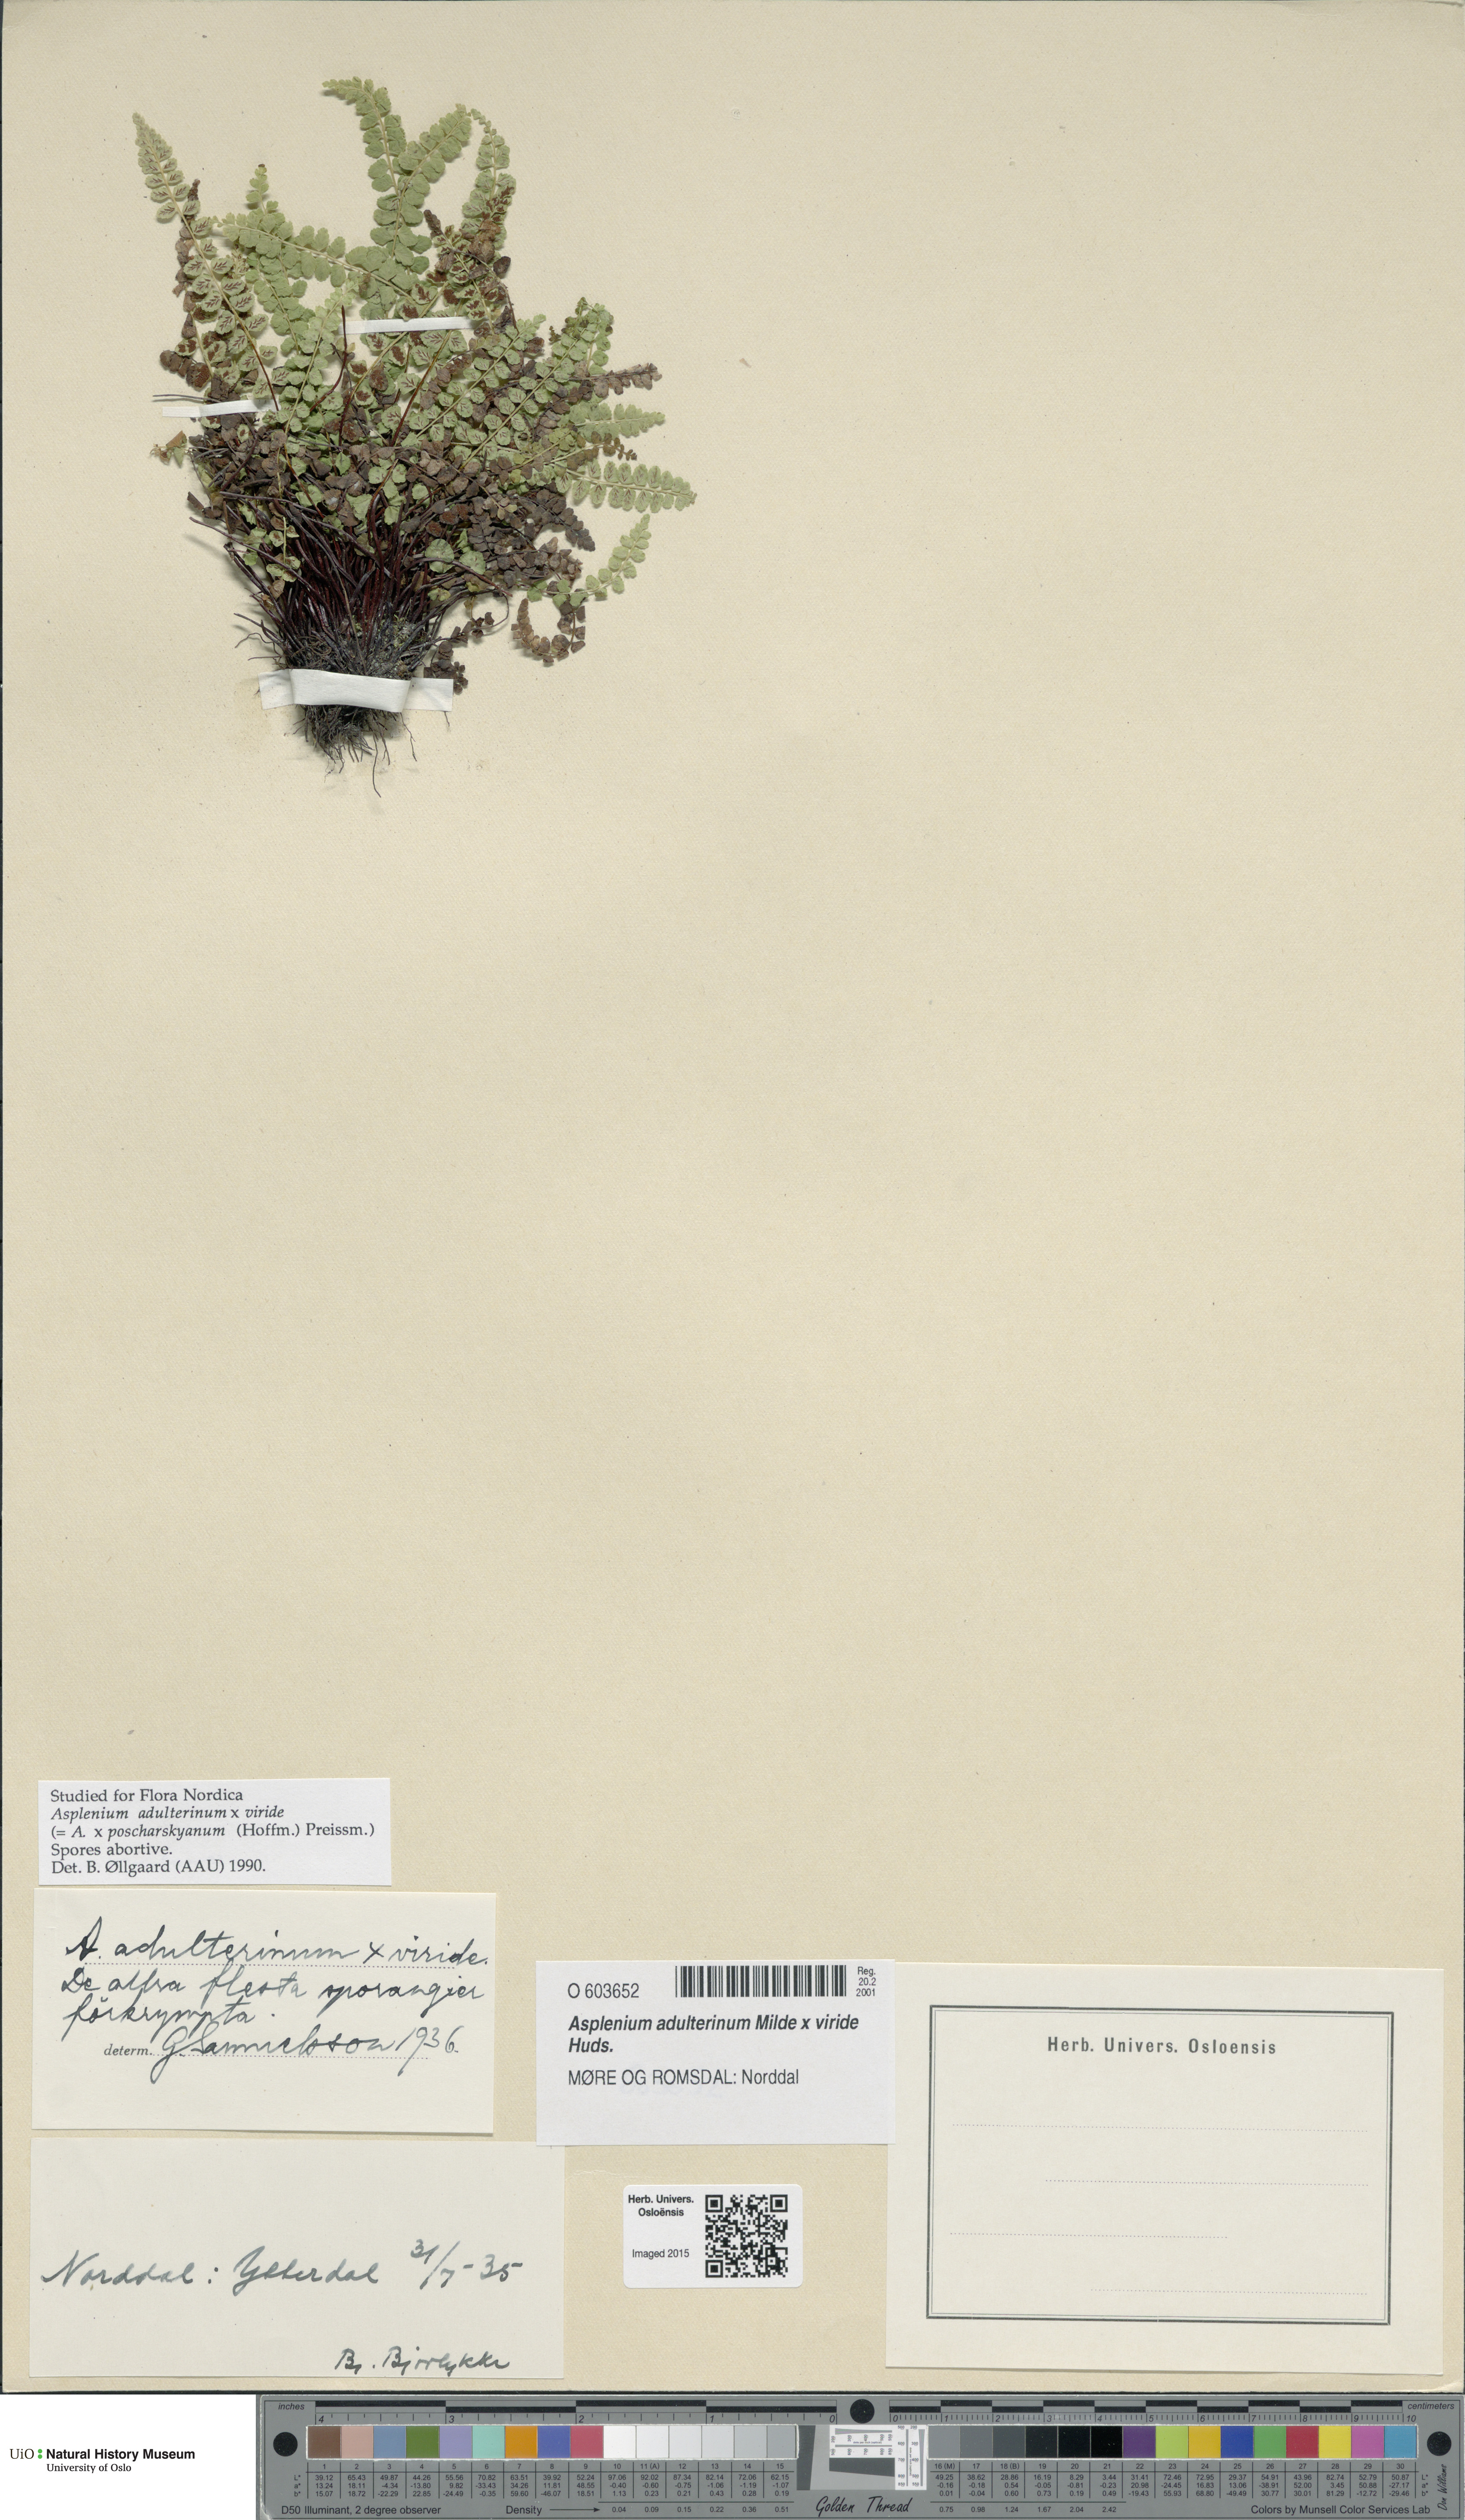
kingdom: Plantae
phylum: Tracheophyta
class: Polypodiopsida
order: Polypodiales
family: Aspleniaceae
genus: Asplenium
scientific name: Asplenium
